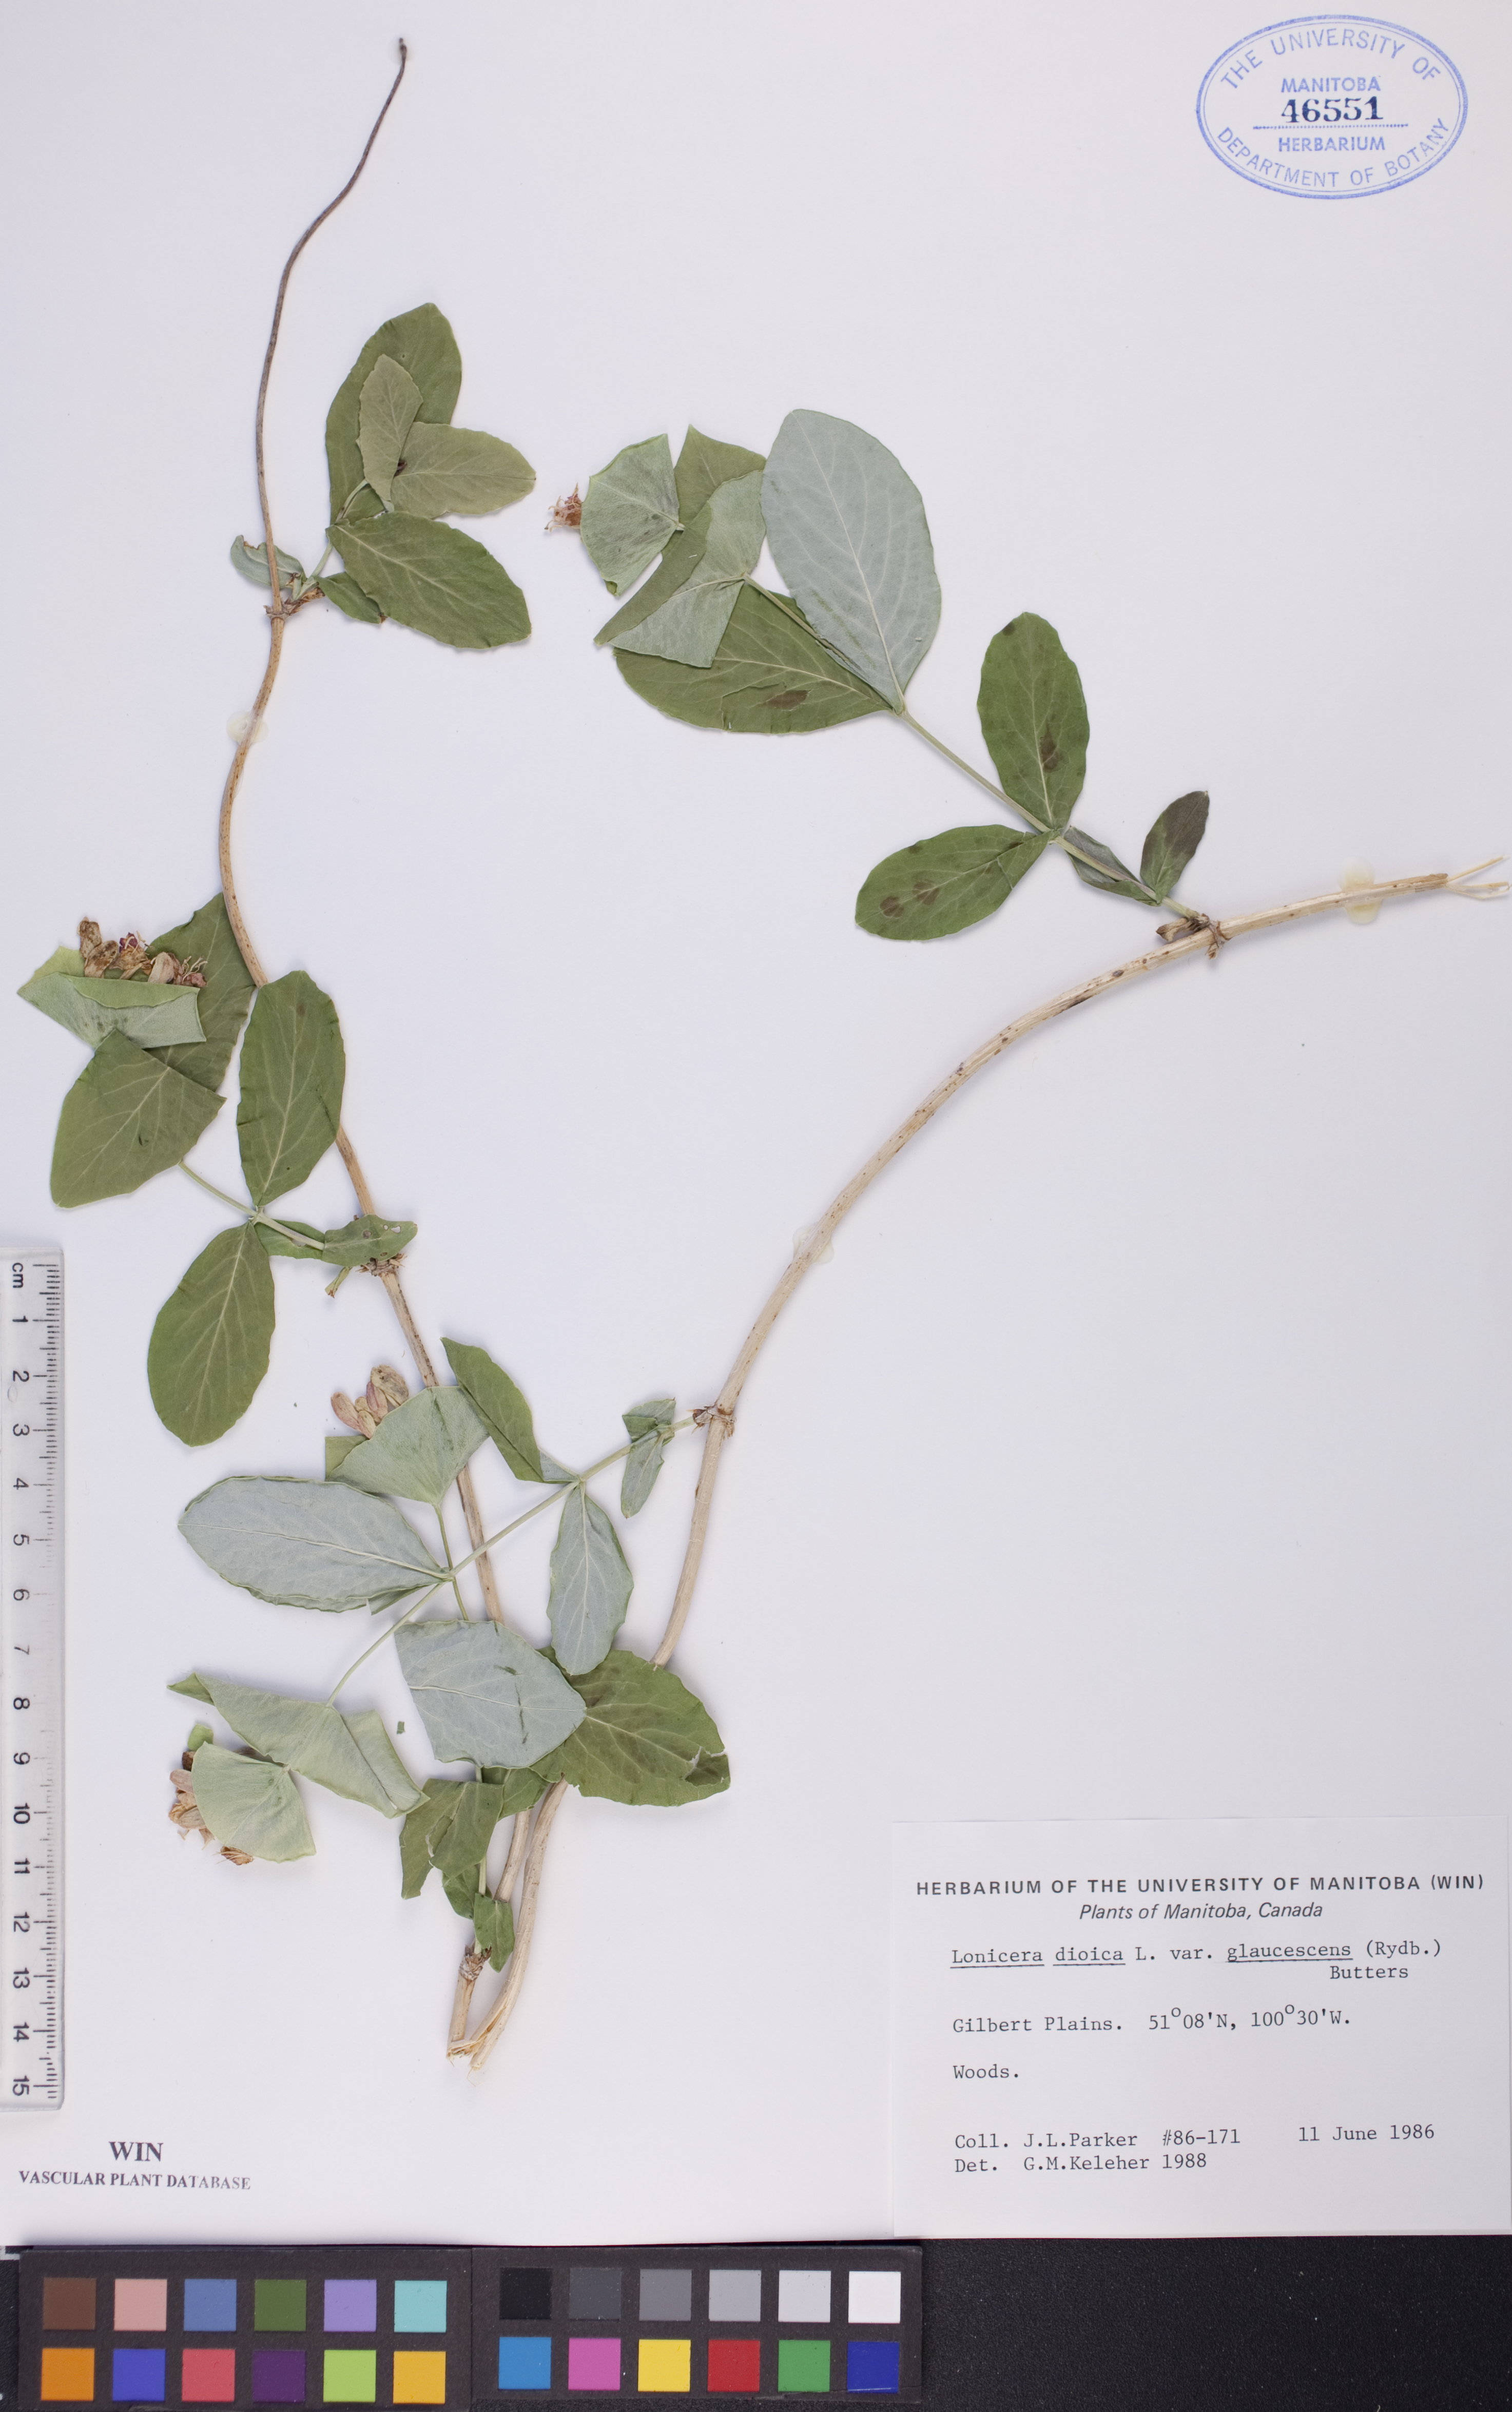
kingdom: Plantae
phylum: Tracheophyta
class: Magnoliopsida
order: Dipsacales
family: Caprifoliaceae
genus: Lonicera
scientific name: Lonicera dioica
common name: Limber honeysuckle
